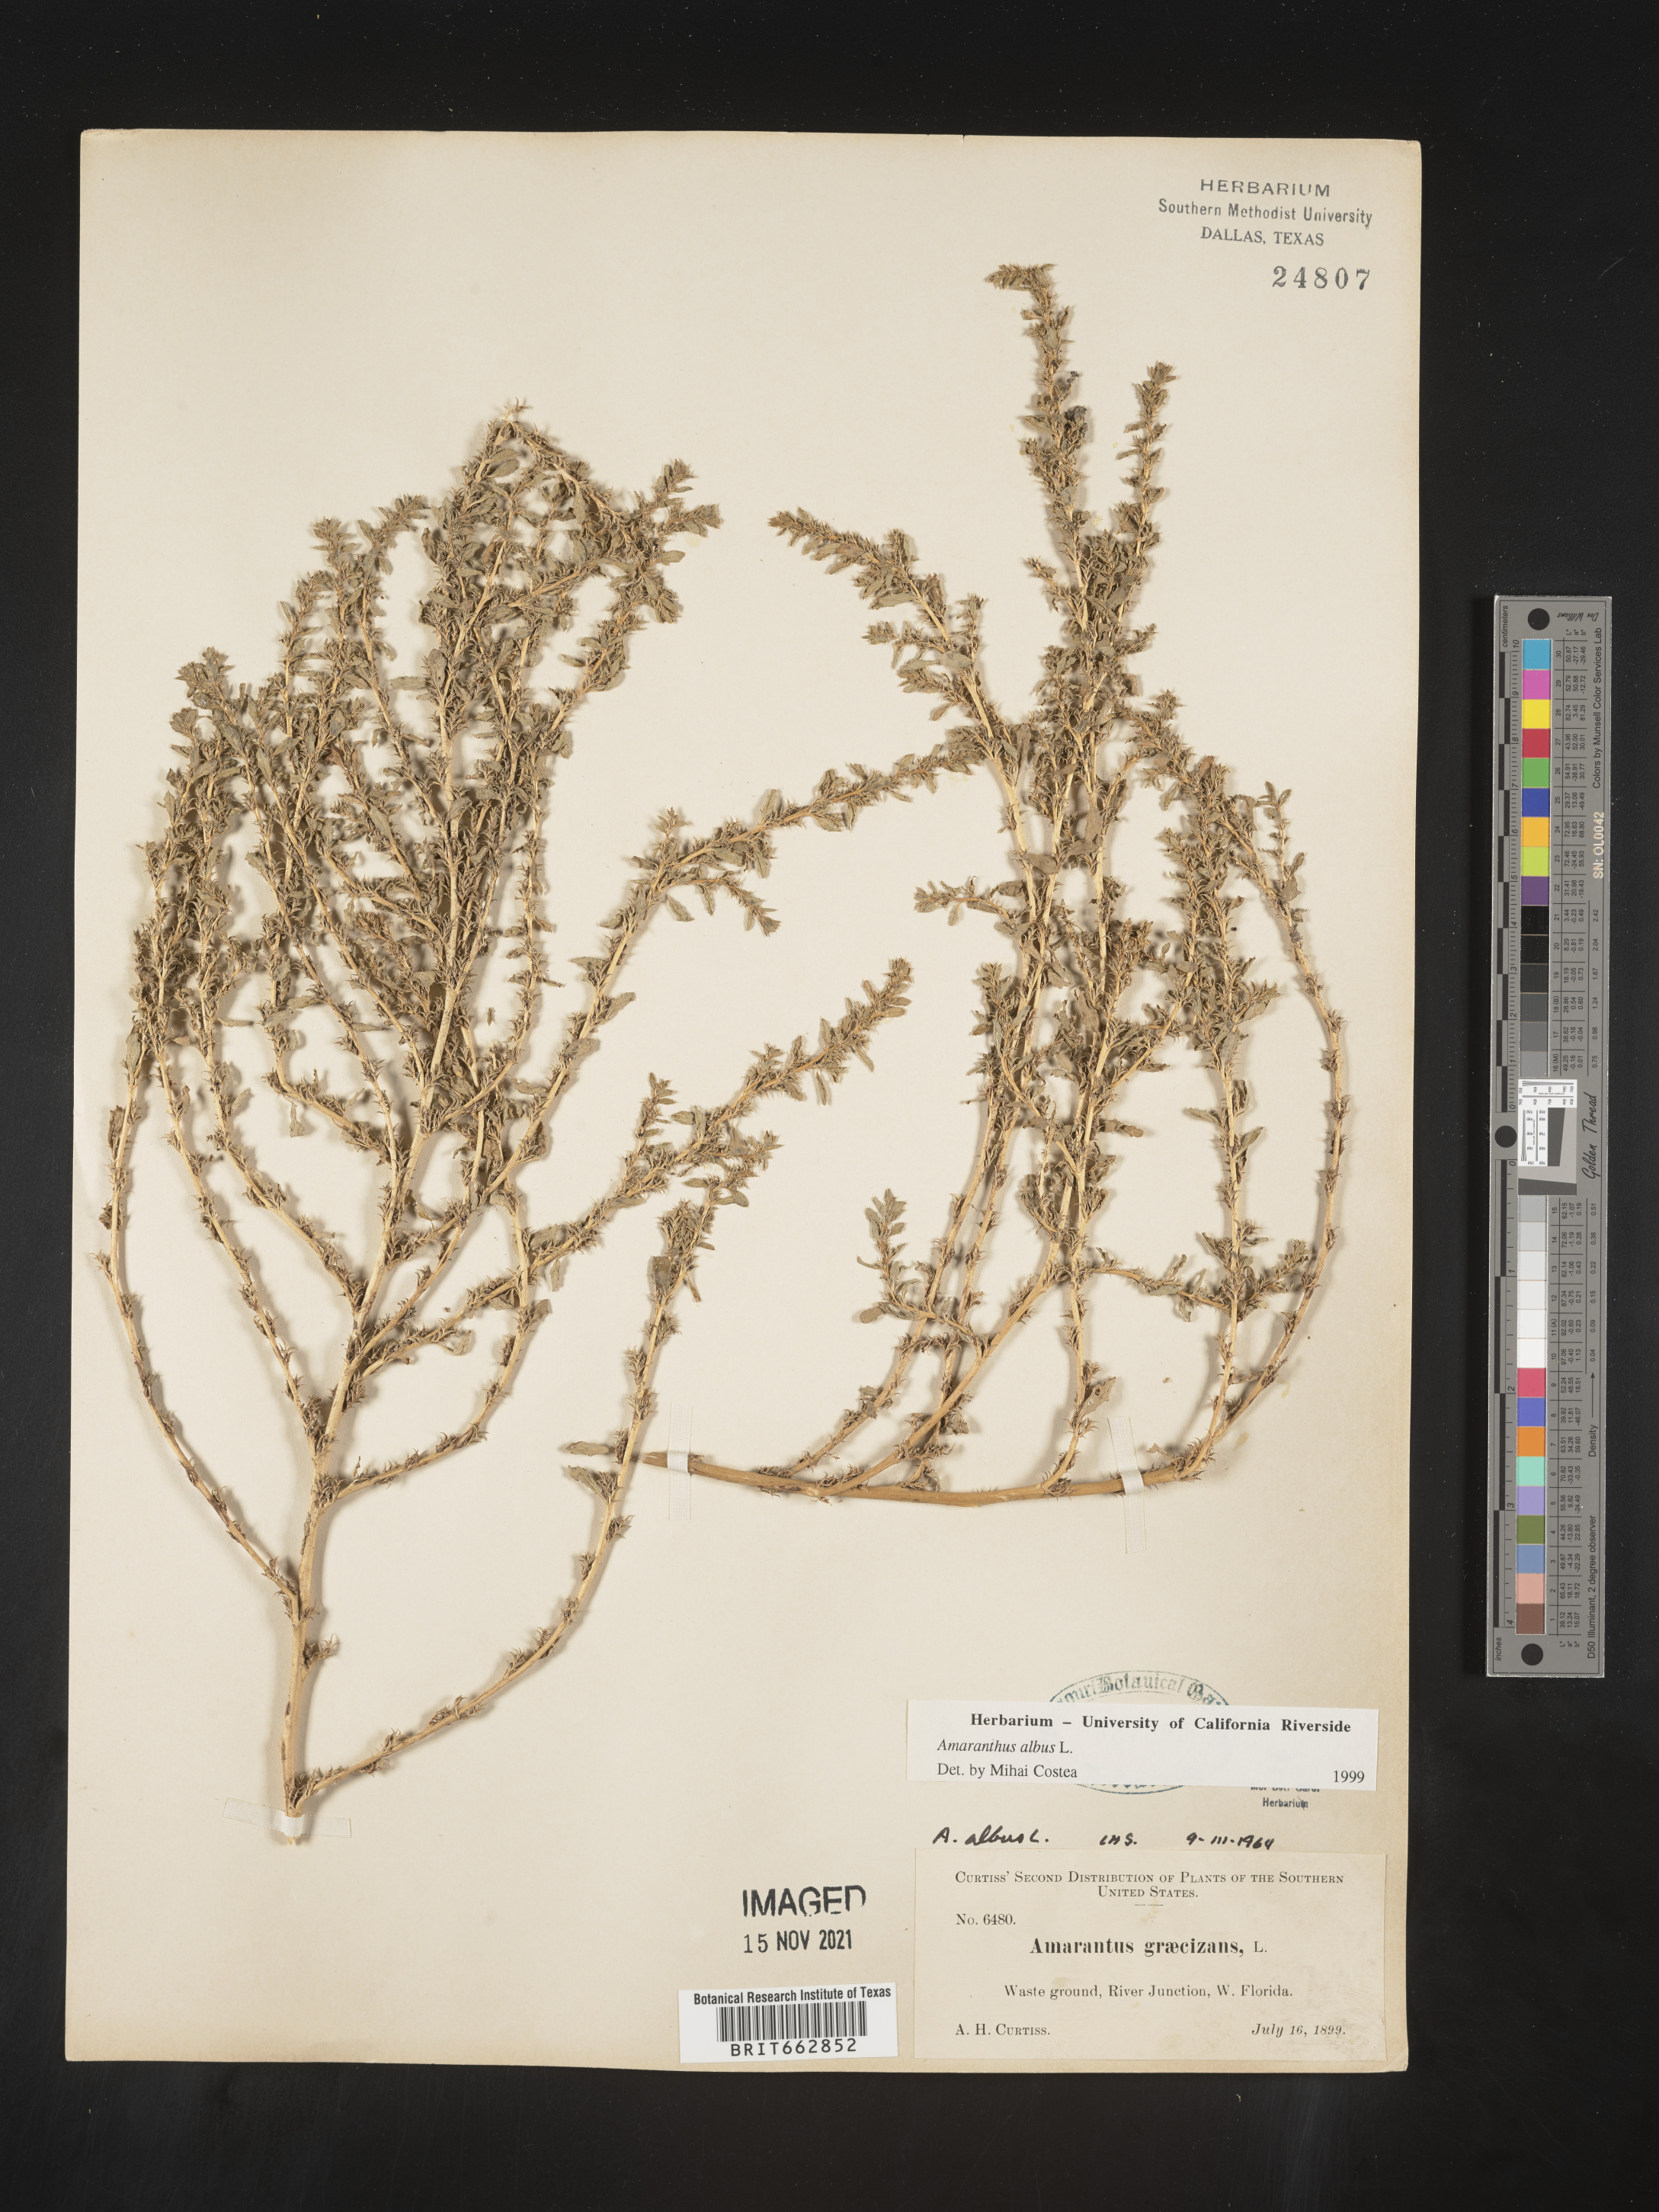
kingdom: Plantae
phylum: Tracheophyta
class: Magnoliopsida
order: Caryophyllales
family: Amaranthaceae
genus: Amaranthus
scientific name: Amaranthus albus
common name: White pigweed
